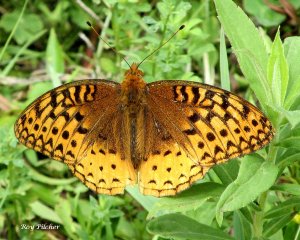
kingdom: Animalia
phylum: Arthropoda
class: Insecta
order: Lepidoptera
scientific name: Lepidoptera
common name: Butterflies
